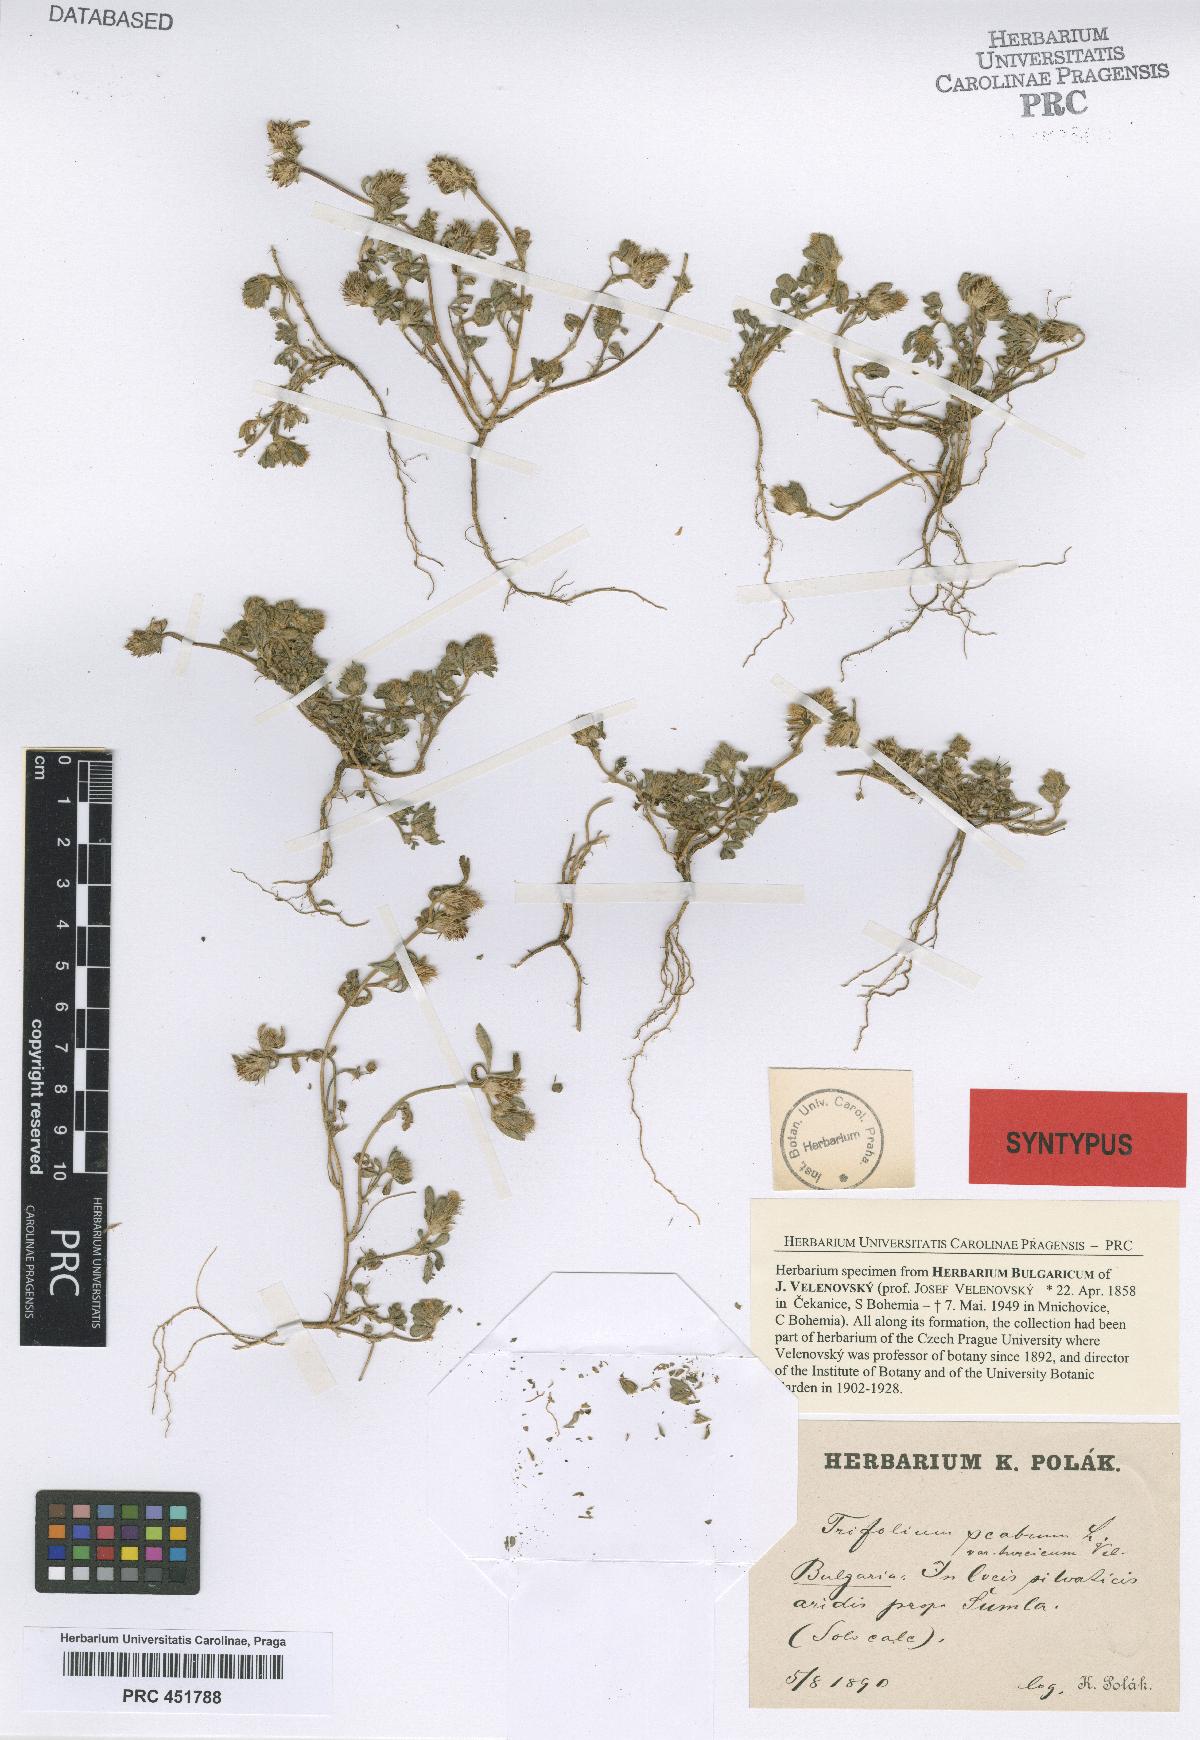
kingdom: Plantae
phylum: Tracheophyta
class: Magnoliopsida
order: Fabales
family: Fabaceae
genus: Trifolium
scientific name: Trifolium lucanicum
